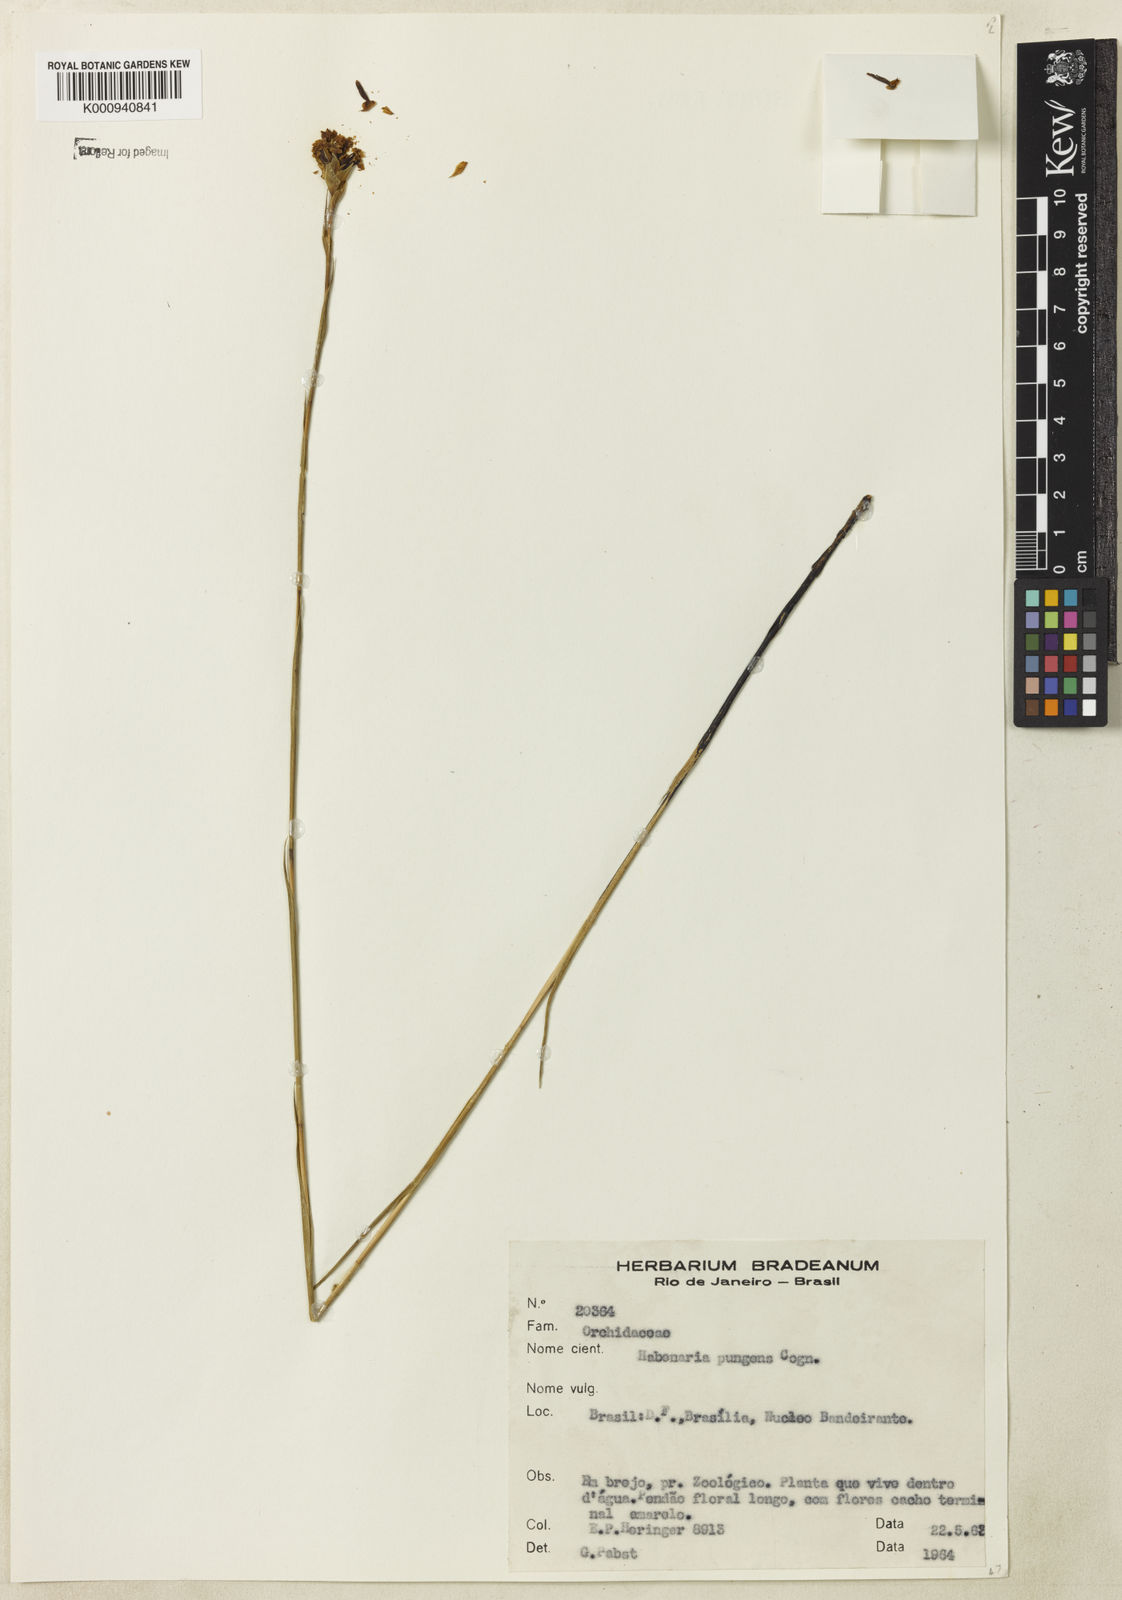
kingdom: Plantae
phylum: Tracheophyta
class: Liliopsida
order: Asparagales
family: Orchidaceae
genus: Habenaria
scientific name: Habenaria
